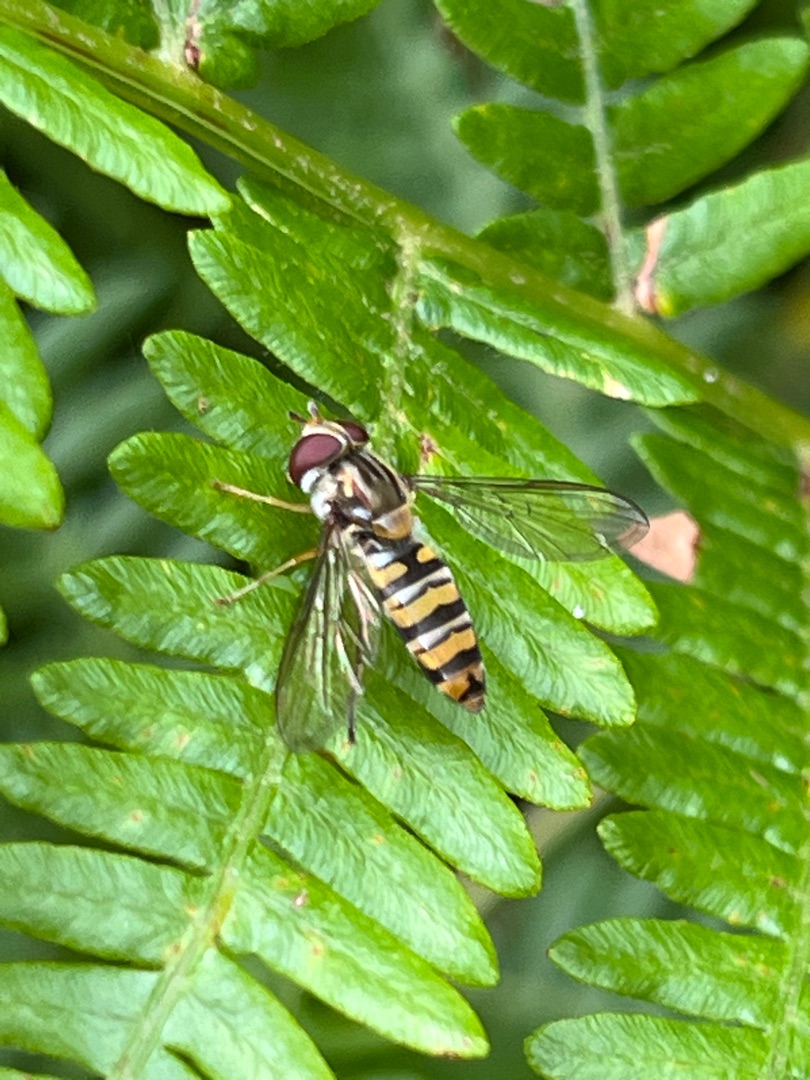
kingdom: Animalia
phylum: Arthropoda
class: Insecta
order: Diptera
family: Syrphidae
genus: Episyrphus
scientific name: Episyrphus balteatus
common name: Dobbeltbåndet svirreflue
